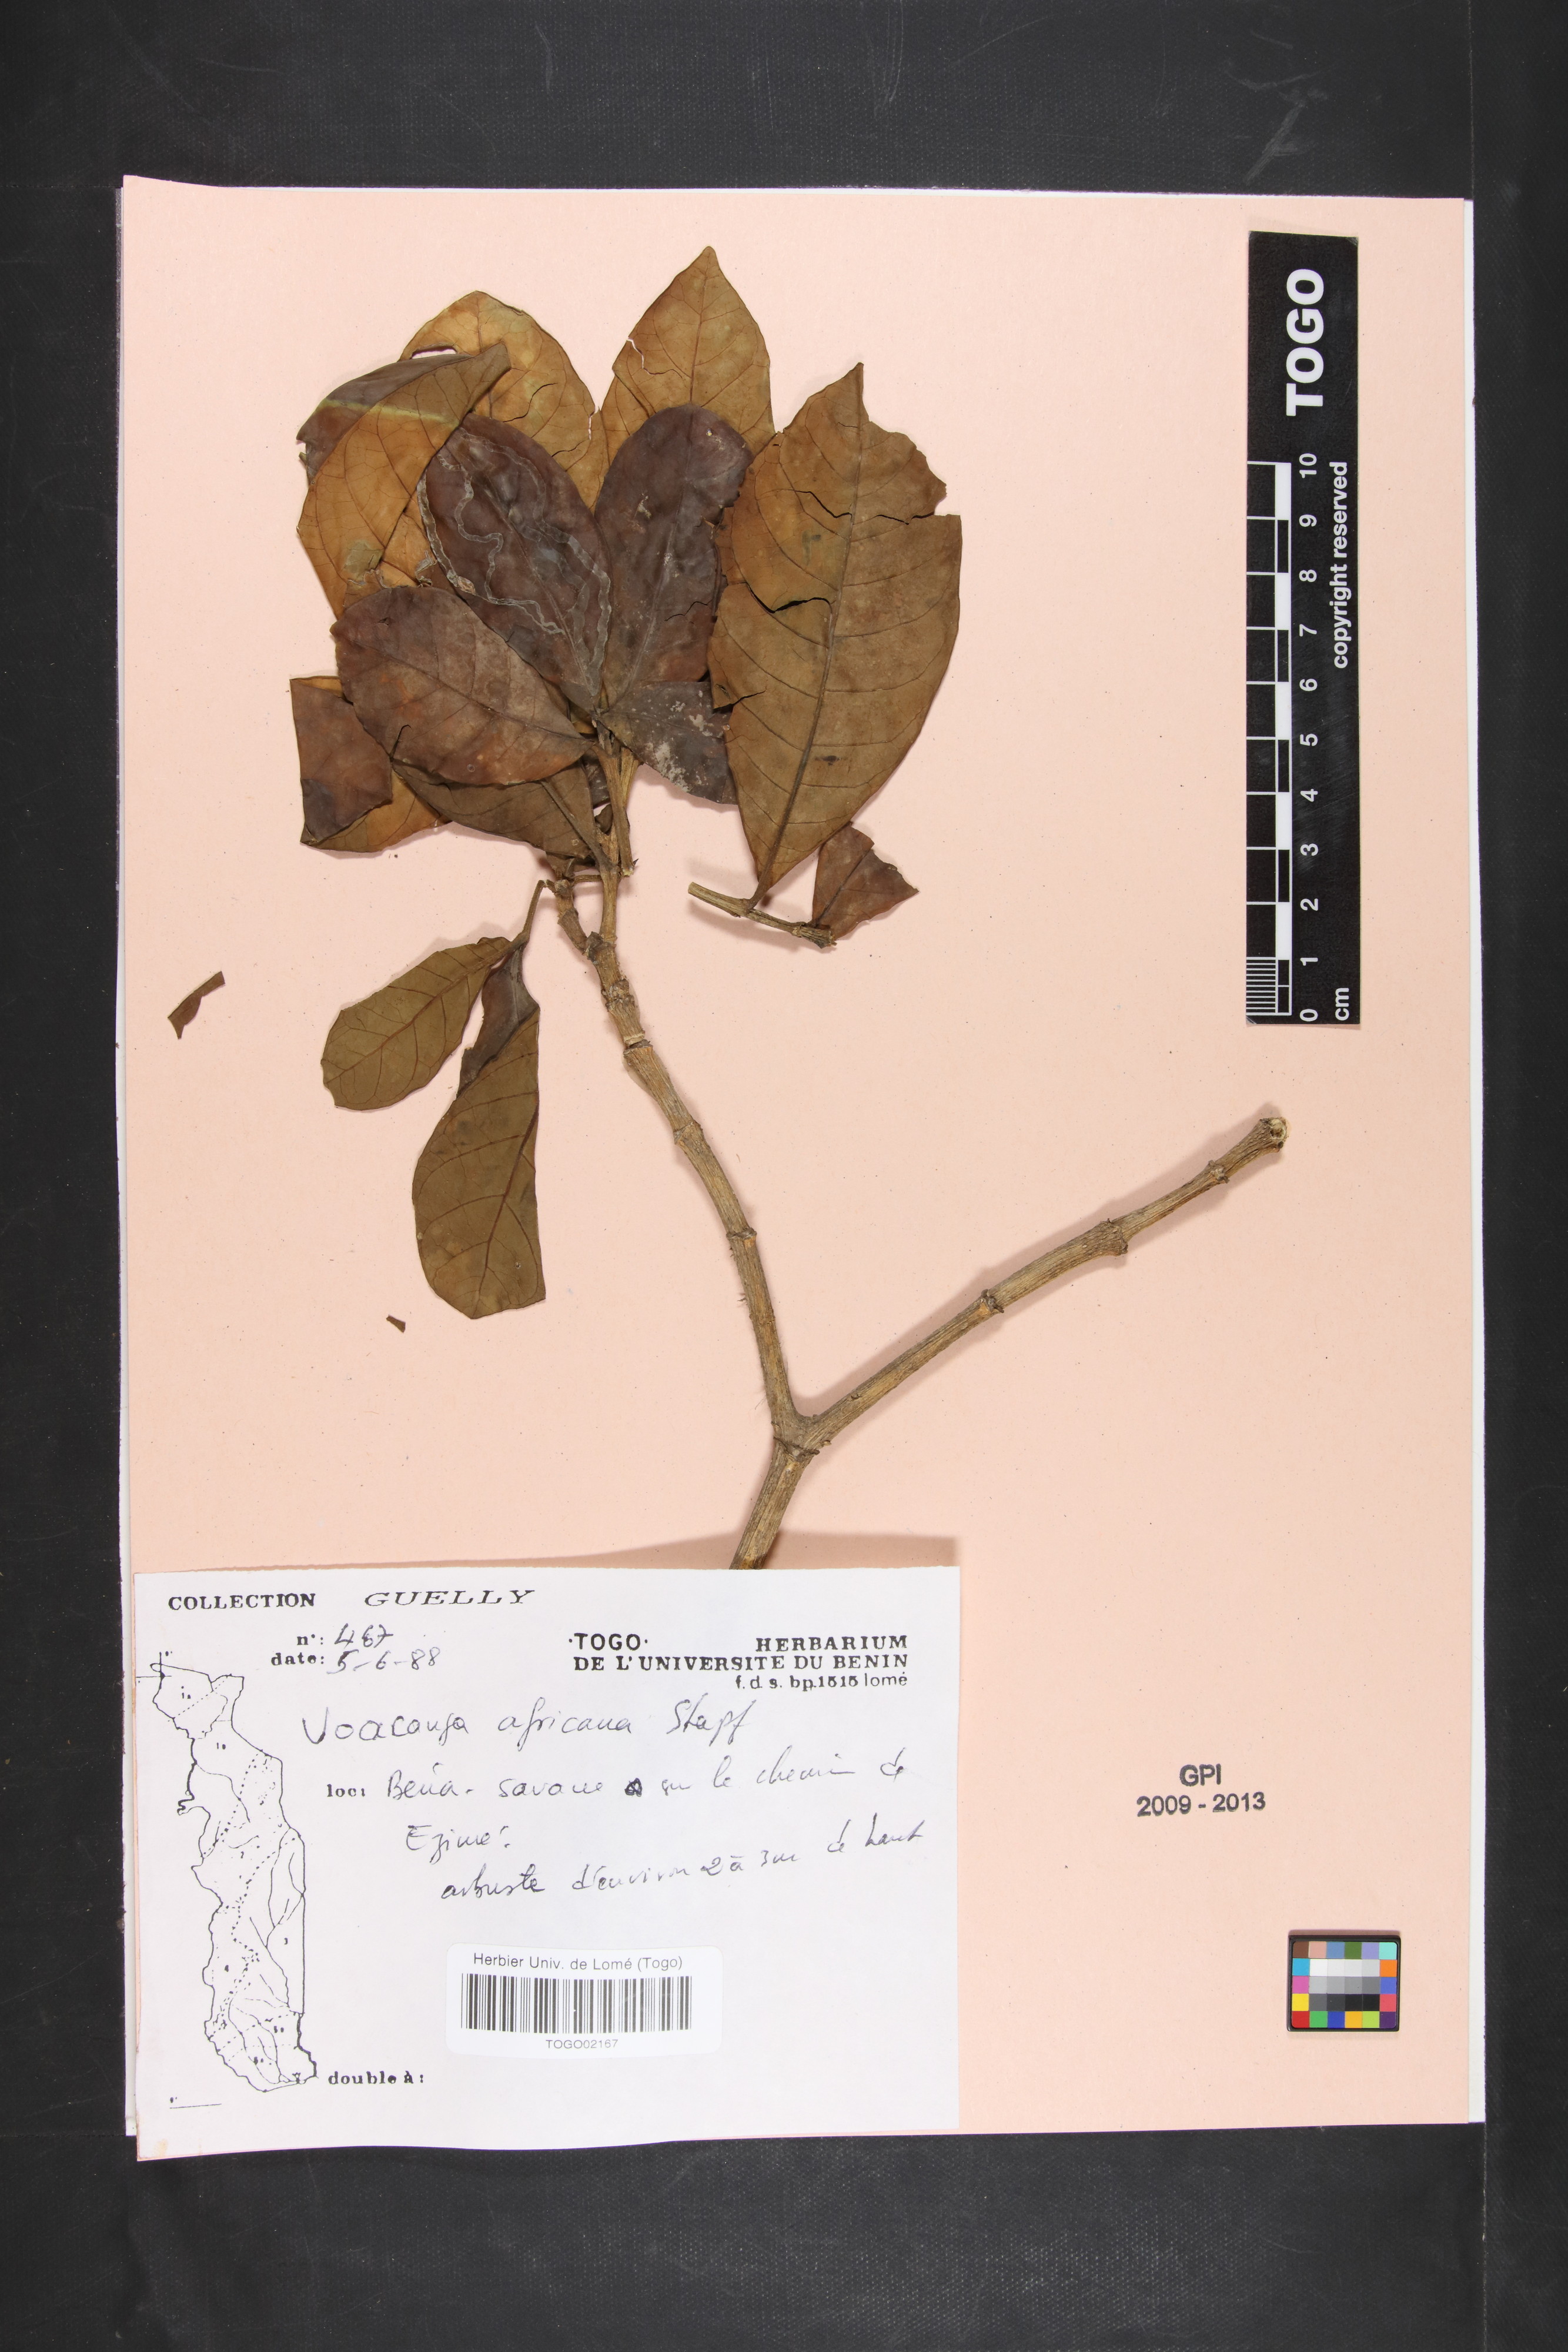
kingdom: Plantae
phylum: Tracheophyta
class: Magnoliopsida
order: Gentianales
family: Apocynaceae
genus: Voacanga
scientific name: Voacanga africana
